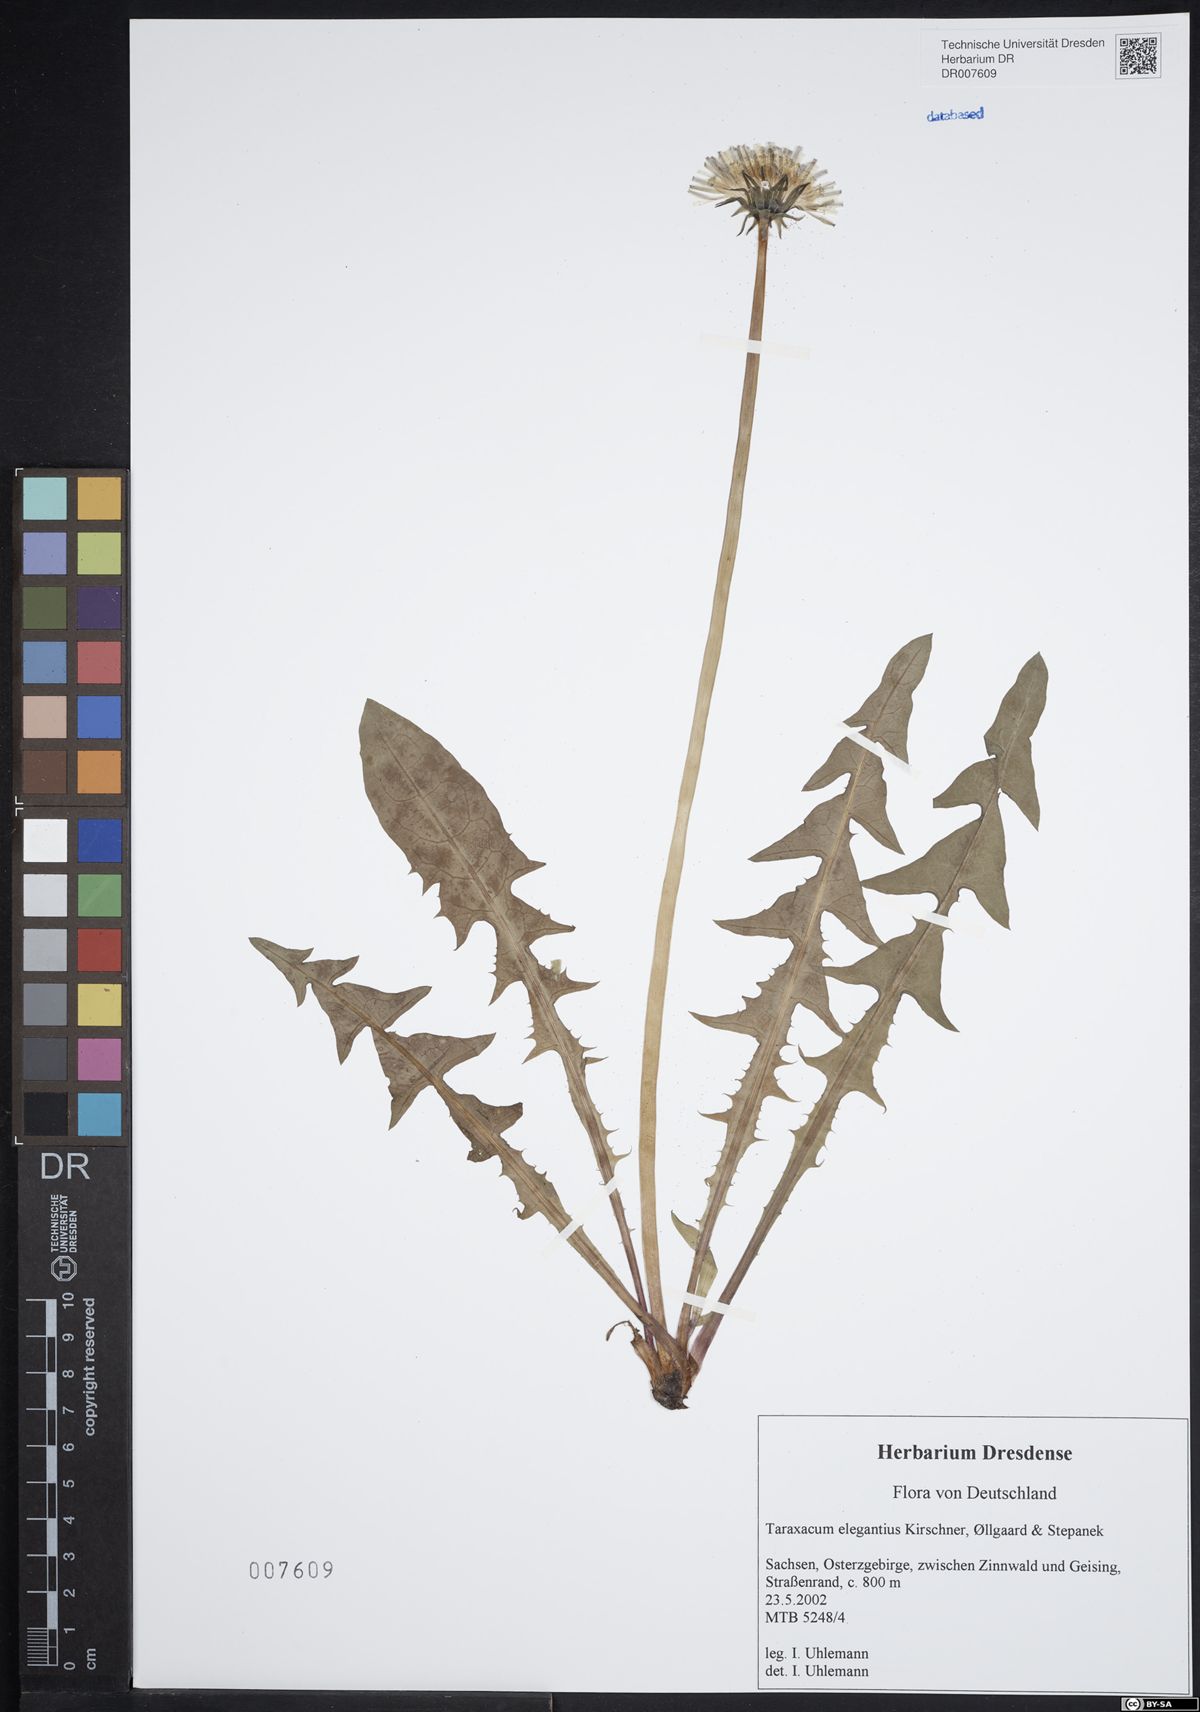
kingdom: Plantae
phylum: Tracheophyta
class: Magnoliopsida
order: Asterales
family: Asteraceae
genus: Taraxacum
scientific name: Taraxacum elegantius
